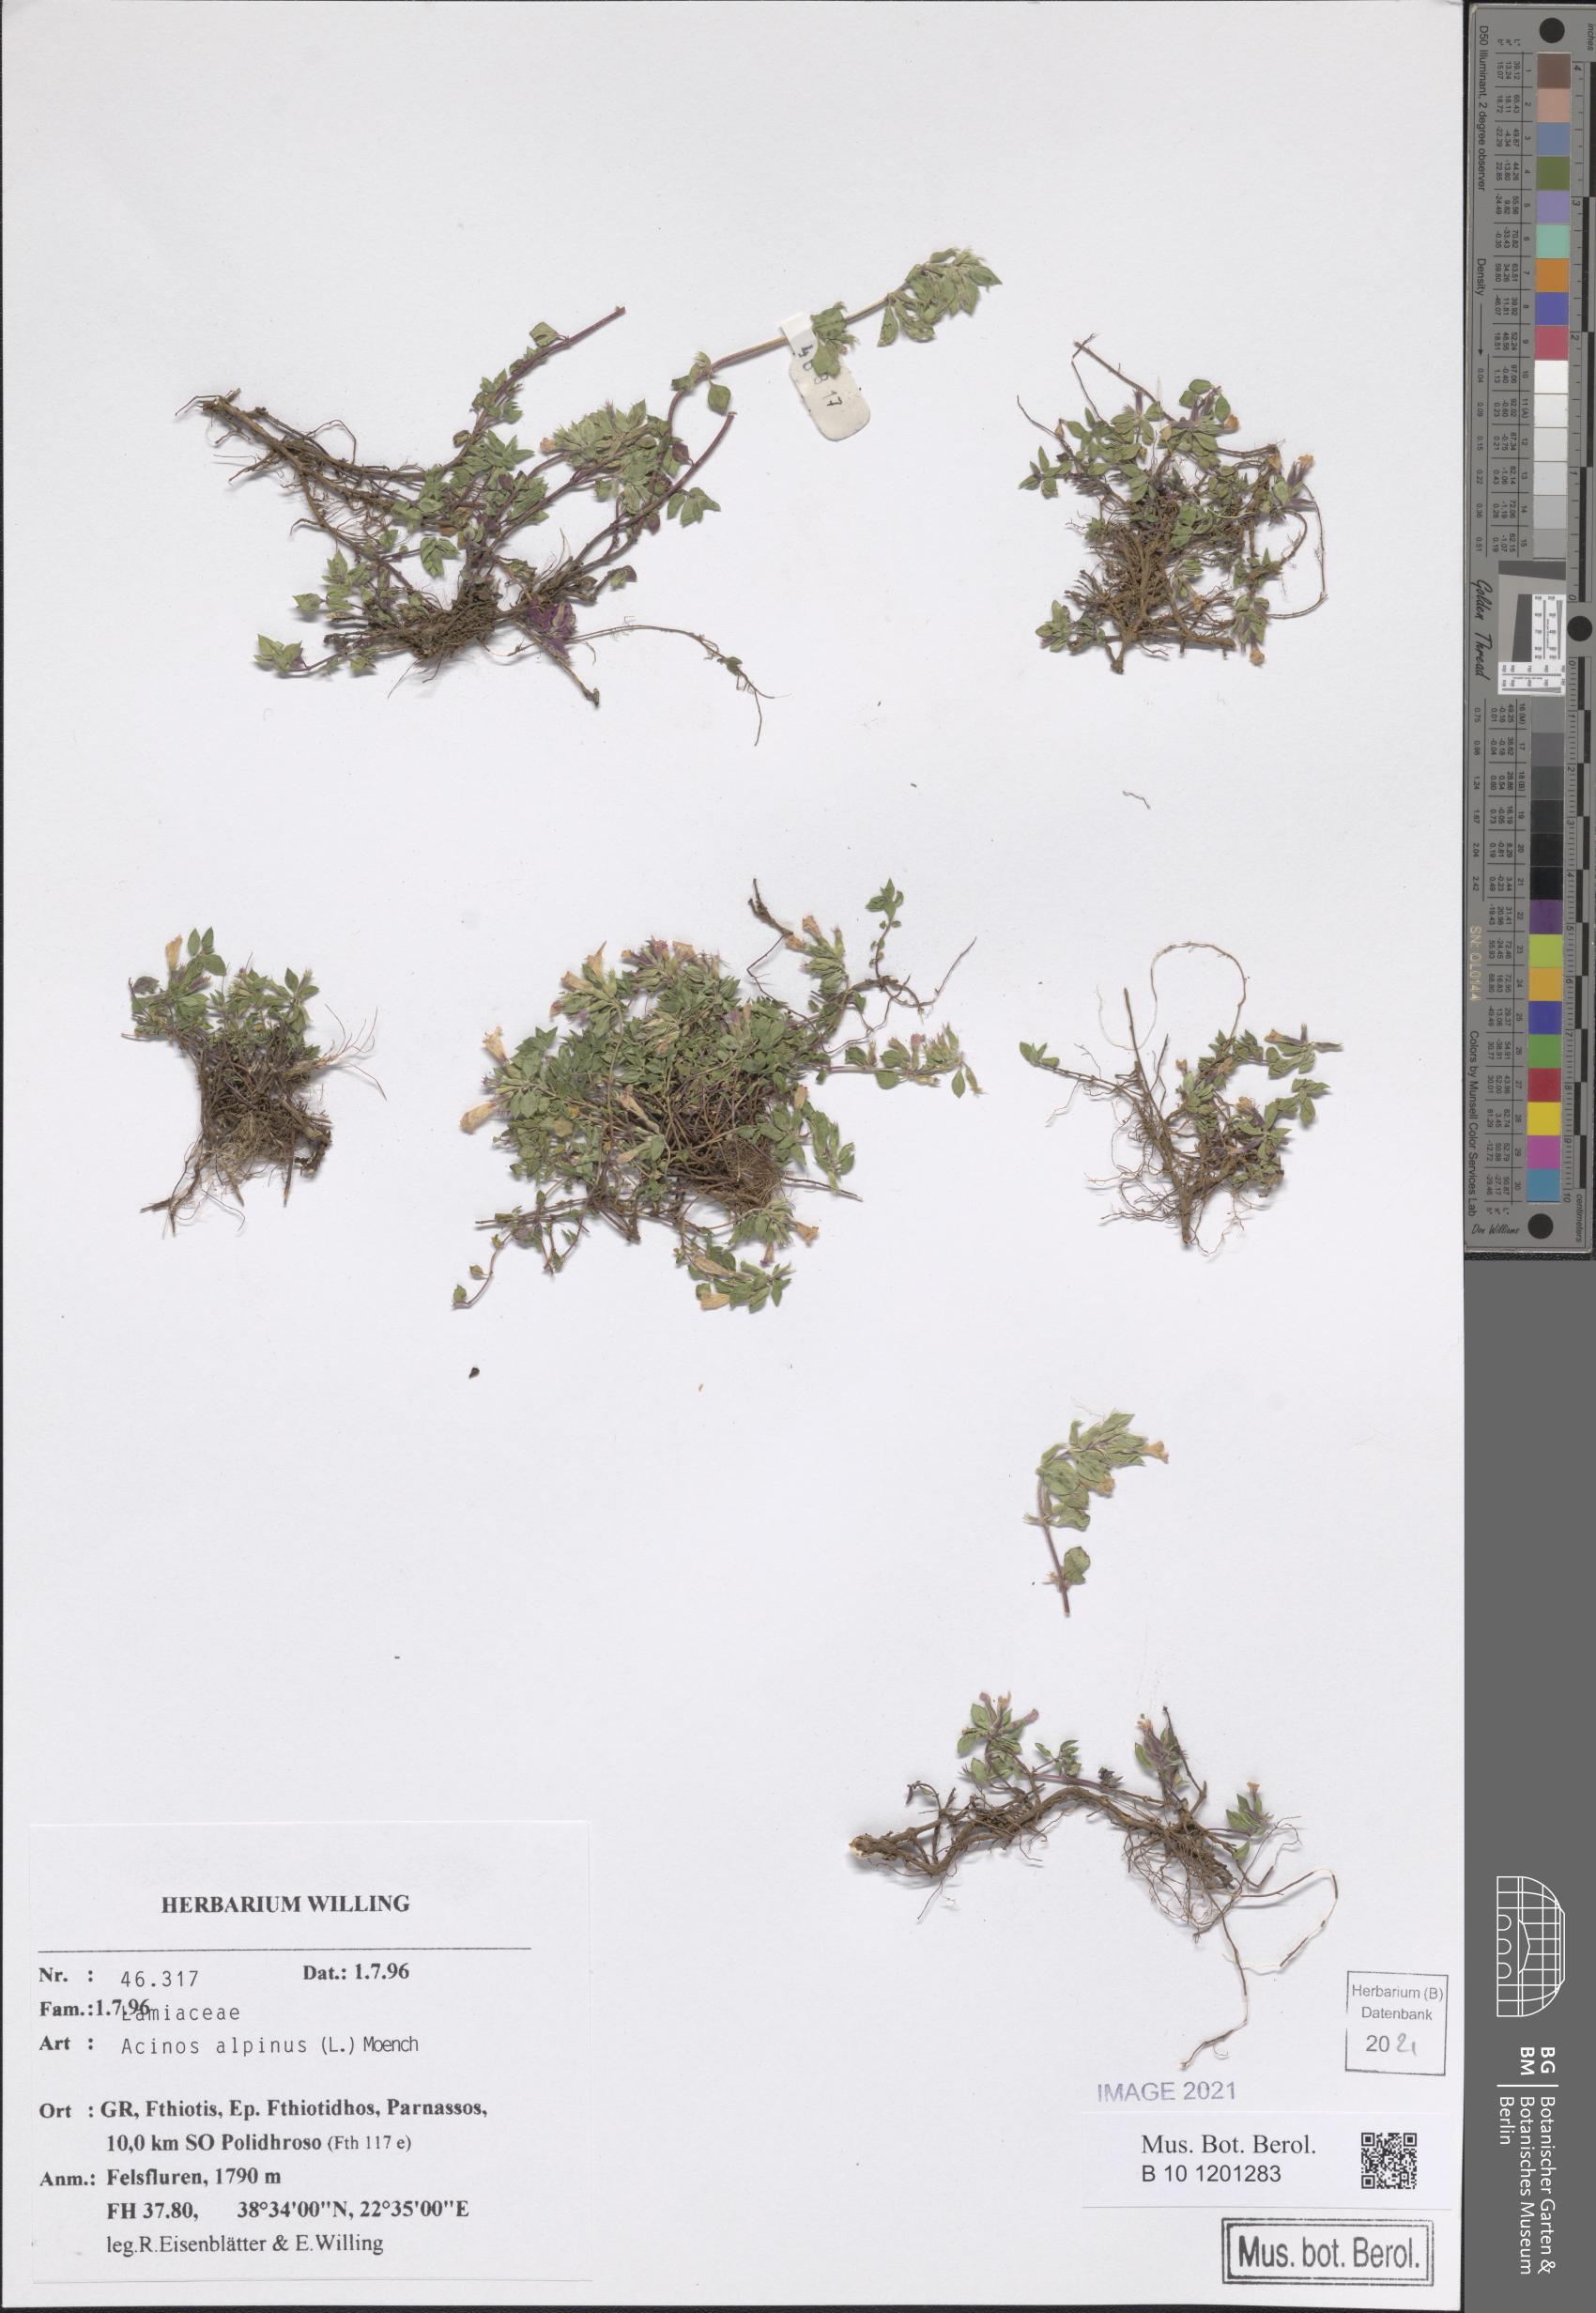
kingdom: Plantae
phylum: Tracheophyta
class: Magnoliopsida
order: Lamiales
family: Lamiaceae
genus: Clinopodium
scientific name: Clinopodium alpinum
